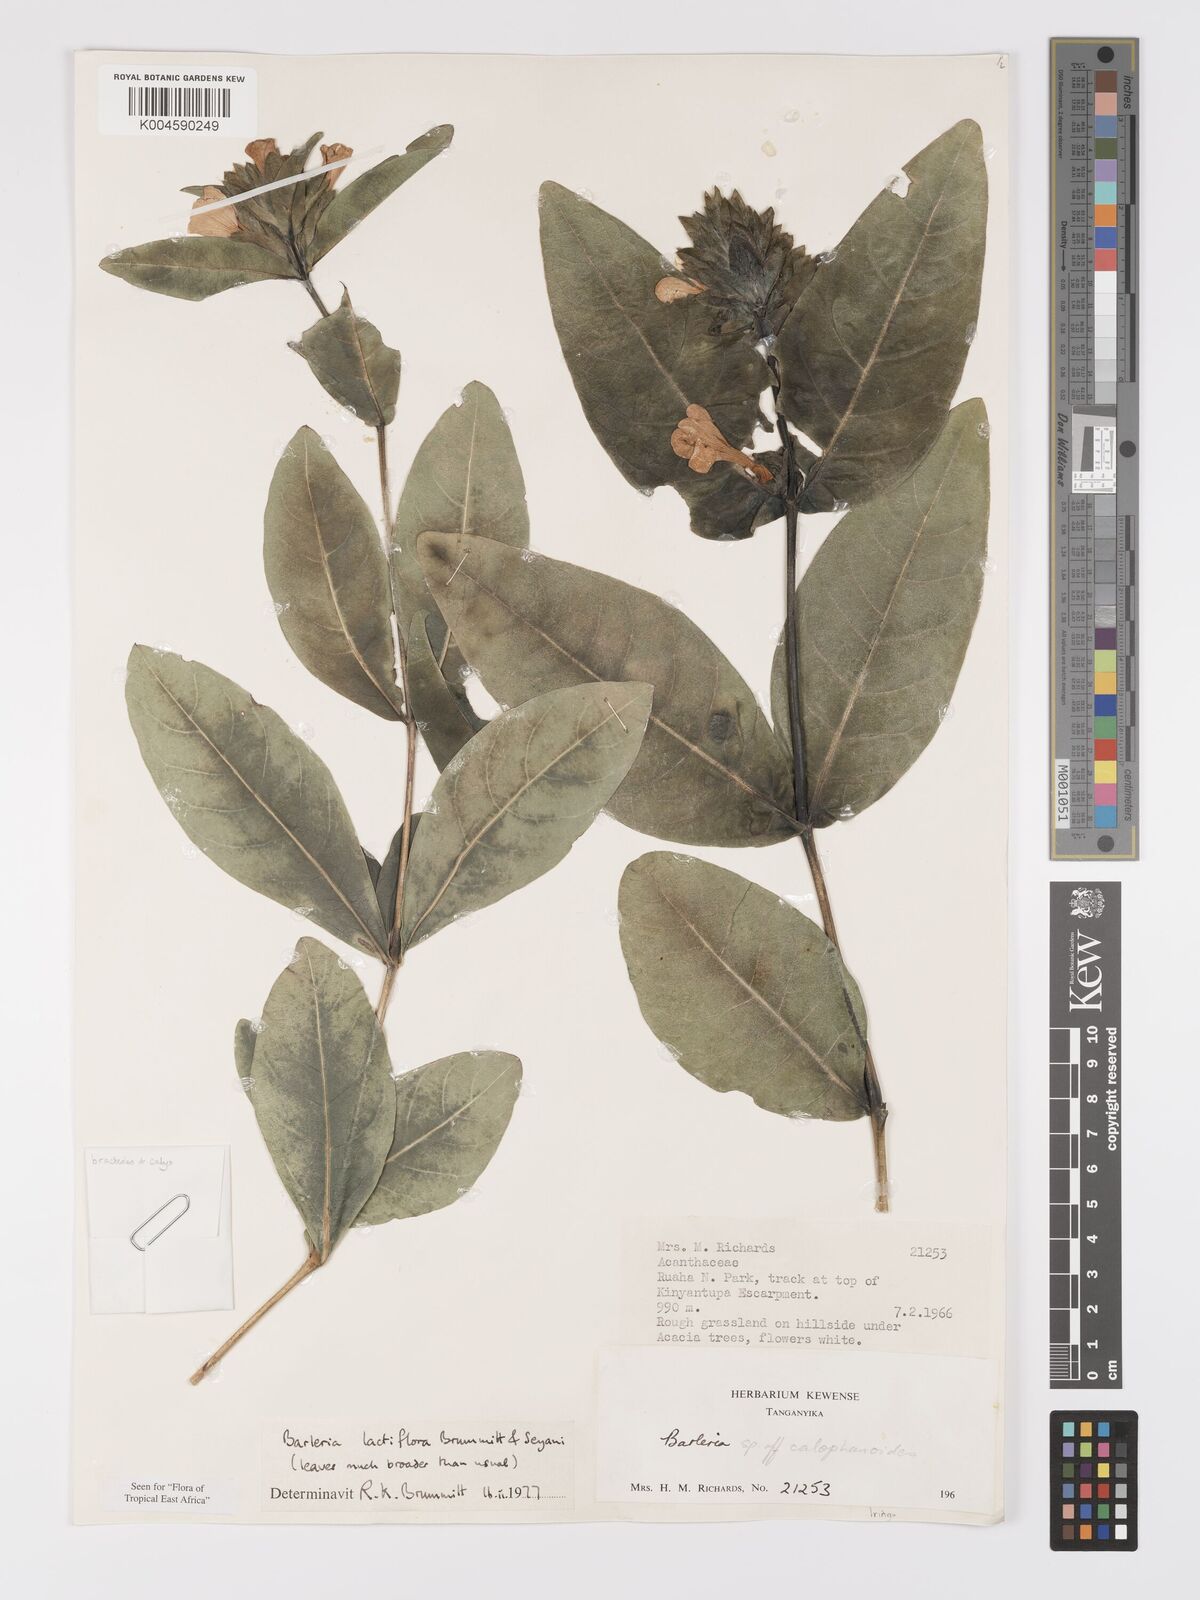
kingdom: Plantae
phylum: Tracheophyta
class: Magnoliopsida
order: Lamiales
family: Acanthaceae
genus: Barleria
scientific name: Barleria lactiflora
